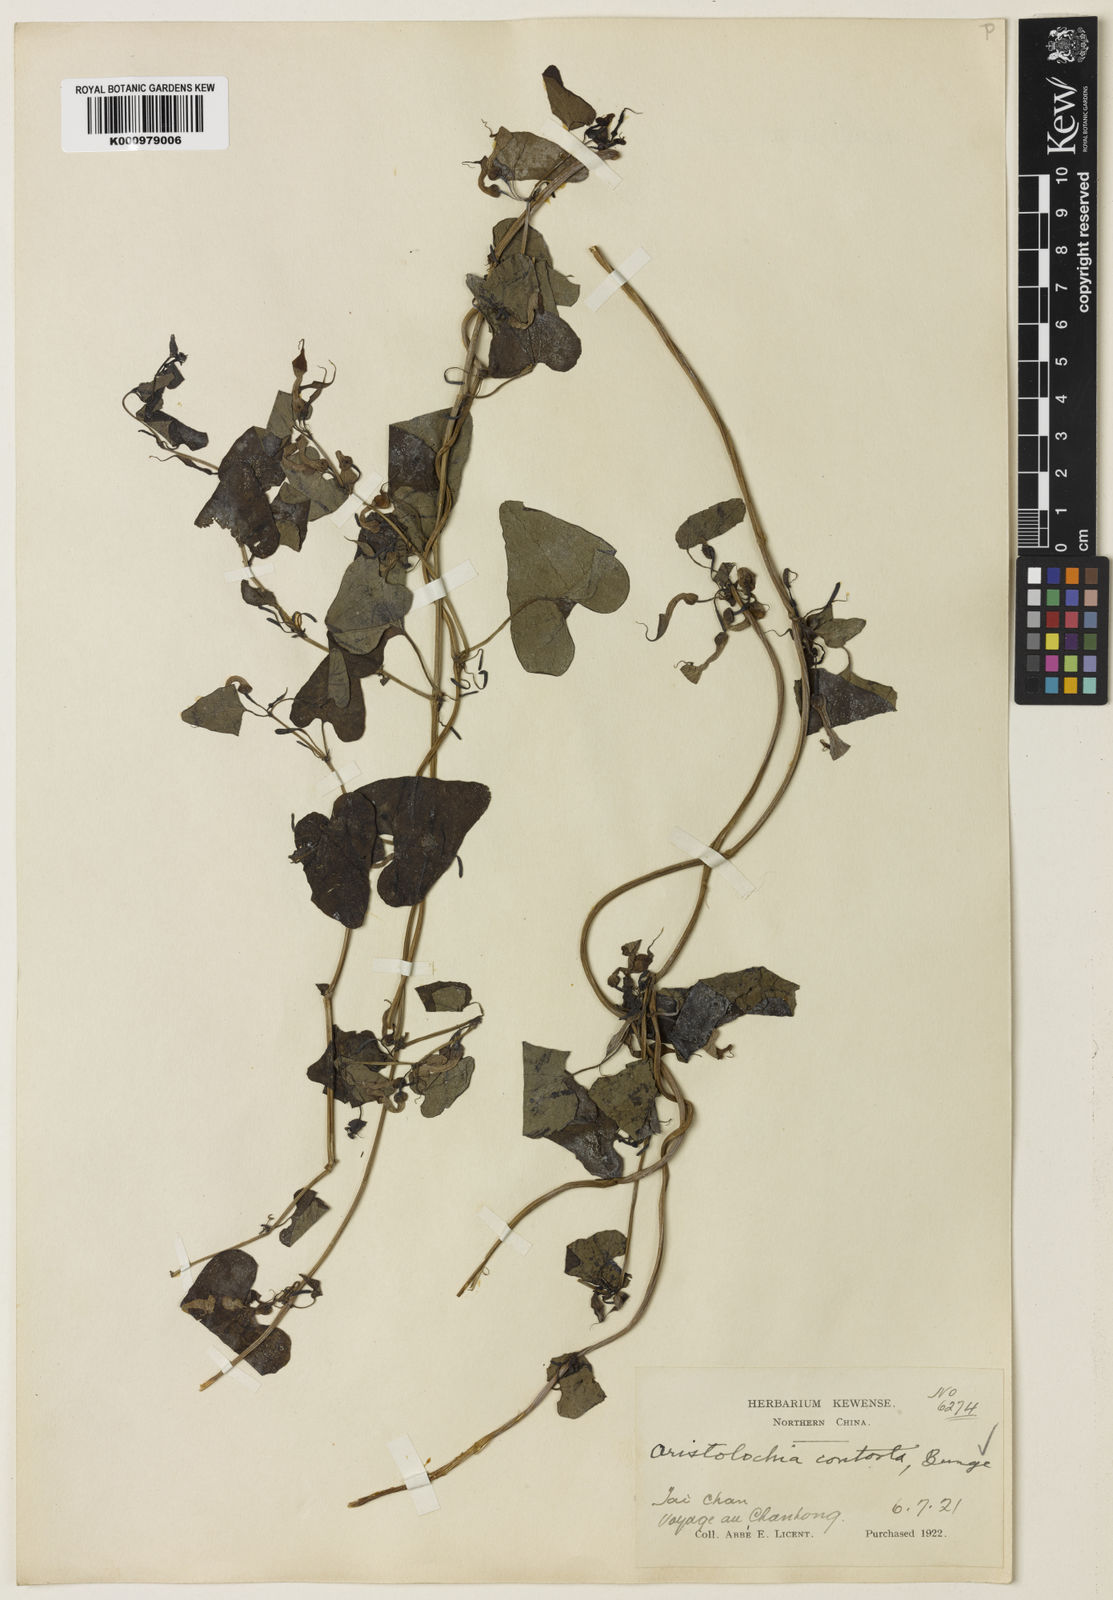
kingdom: Plantae
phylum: Tracheophyta
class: Magnoliopsida
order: Piperales
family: Aristolochiaceae
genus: Aristolochia
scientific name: Aristolochia contorta
